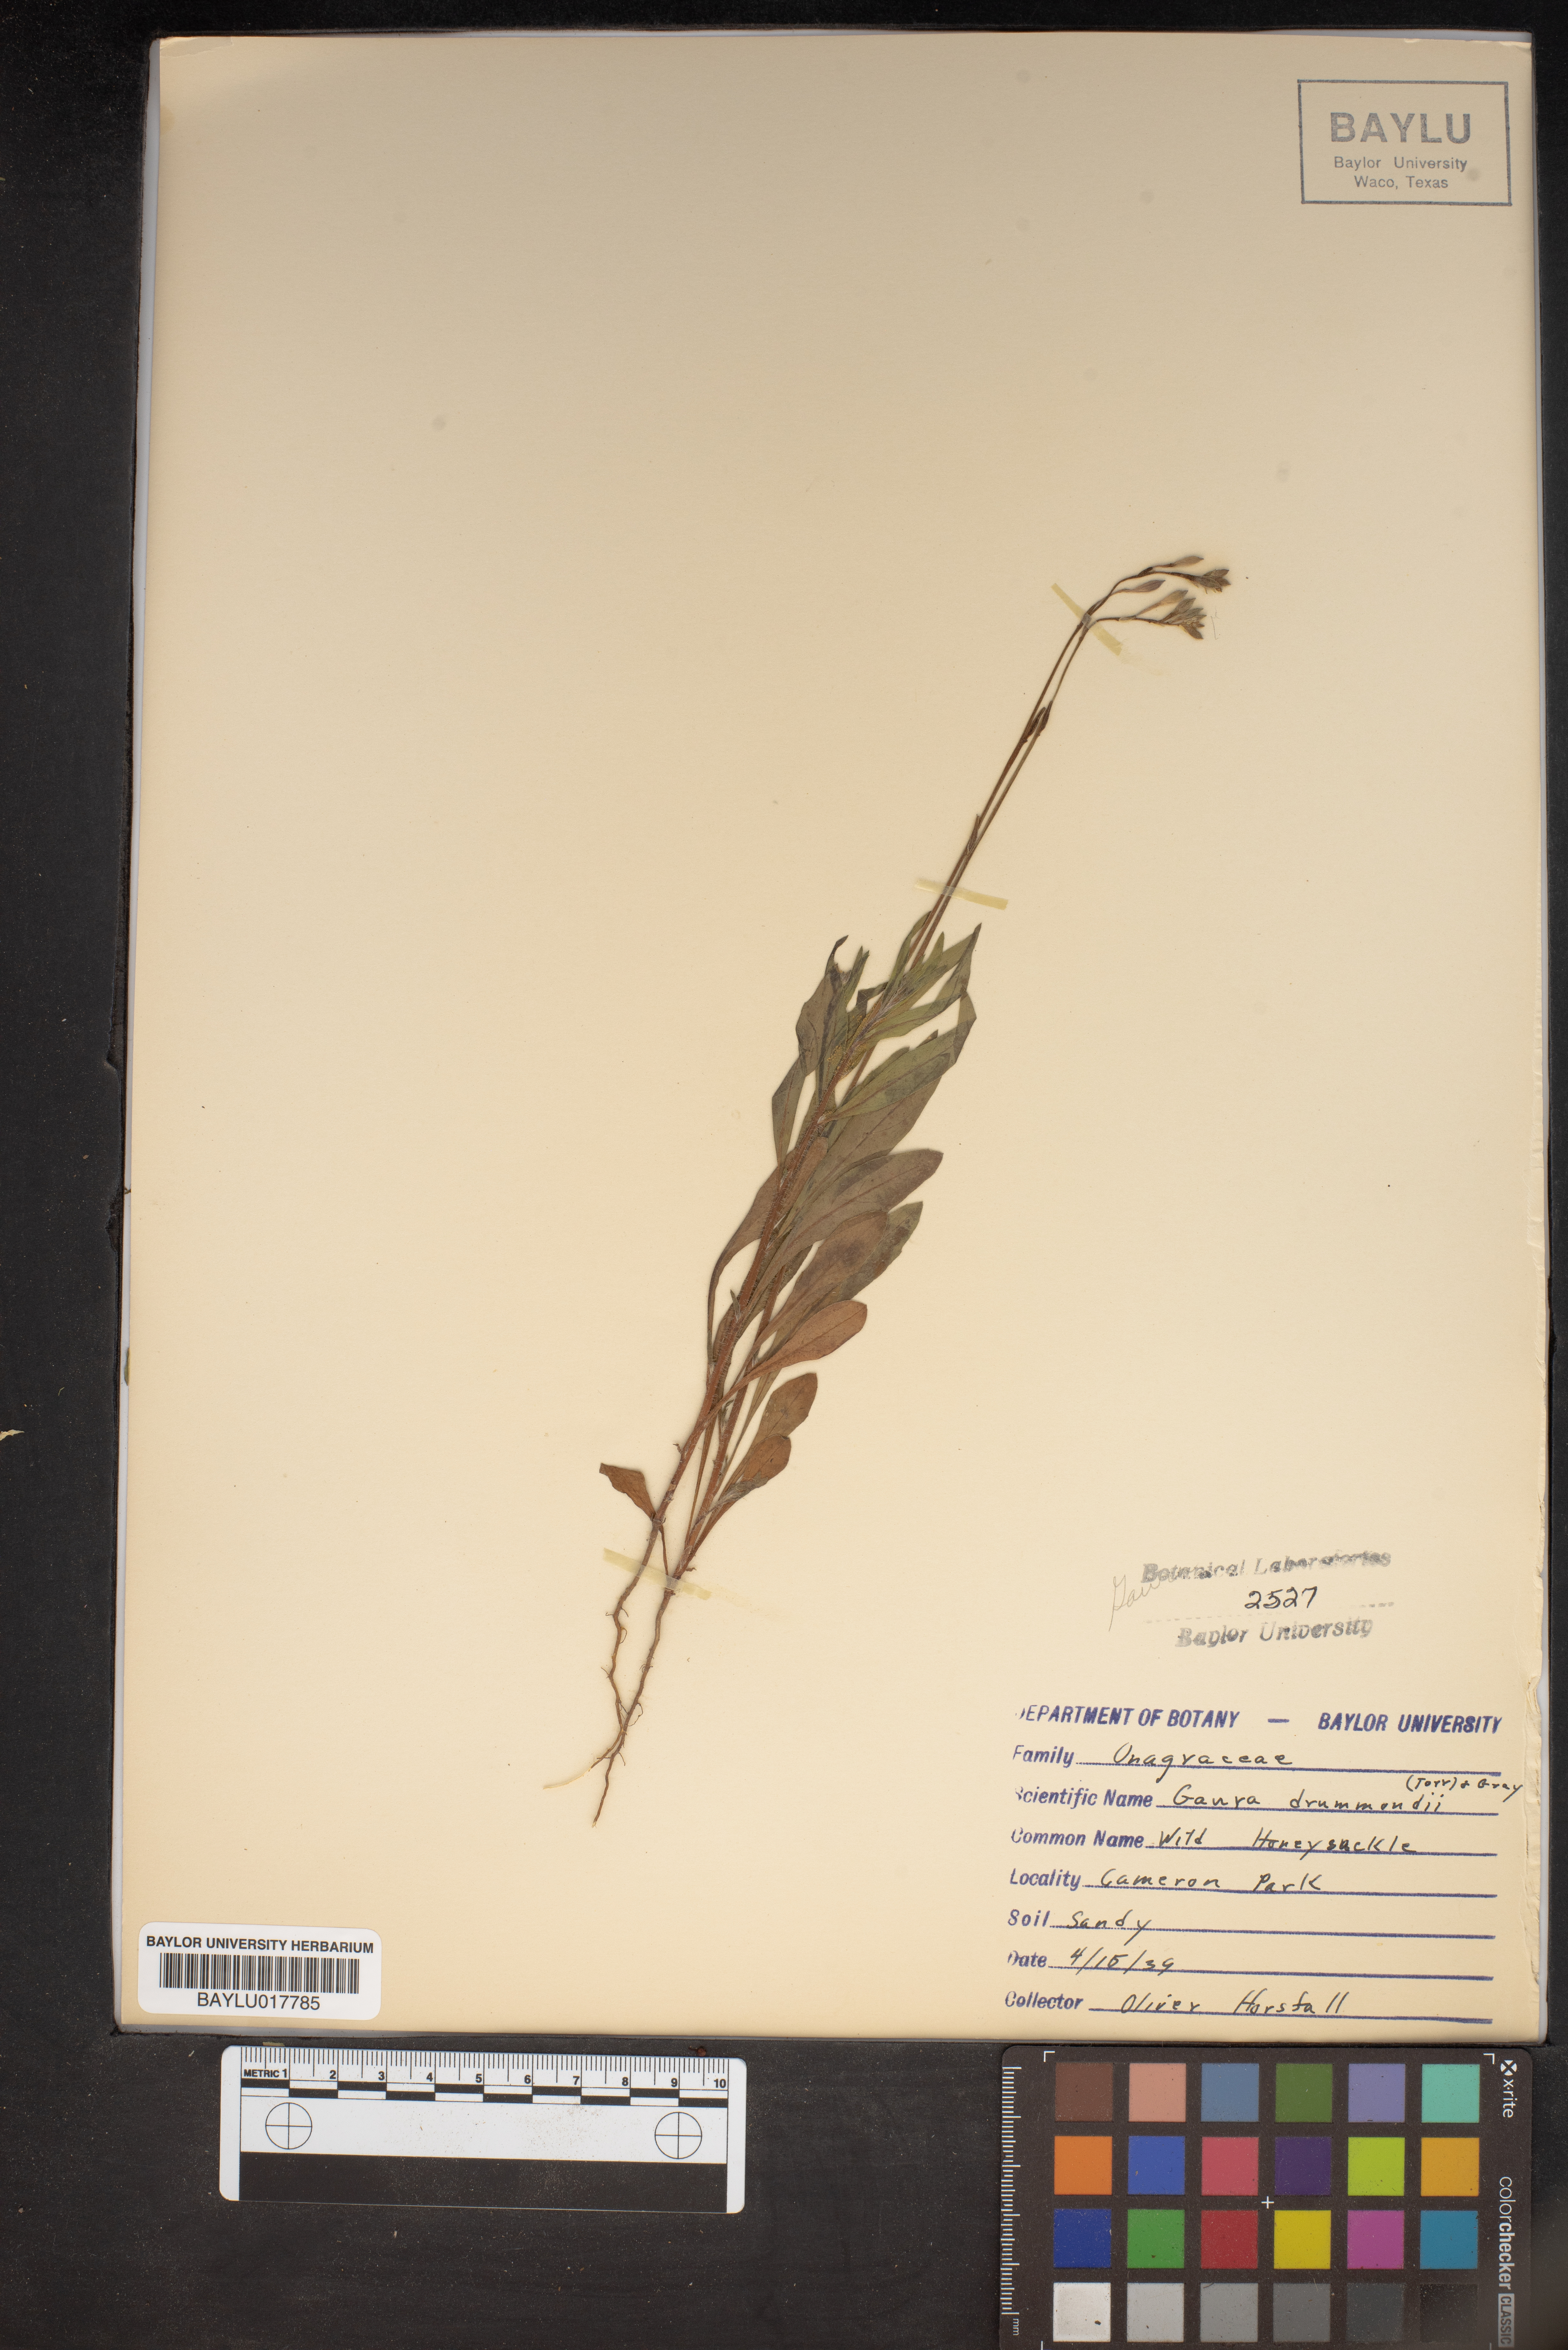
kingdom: Plantae
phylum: Tracheophyta
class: Magnoliopsida
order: Myrtales
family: Onagraceae
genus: Oenothera
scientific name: Oenothera hispida
